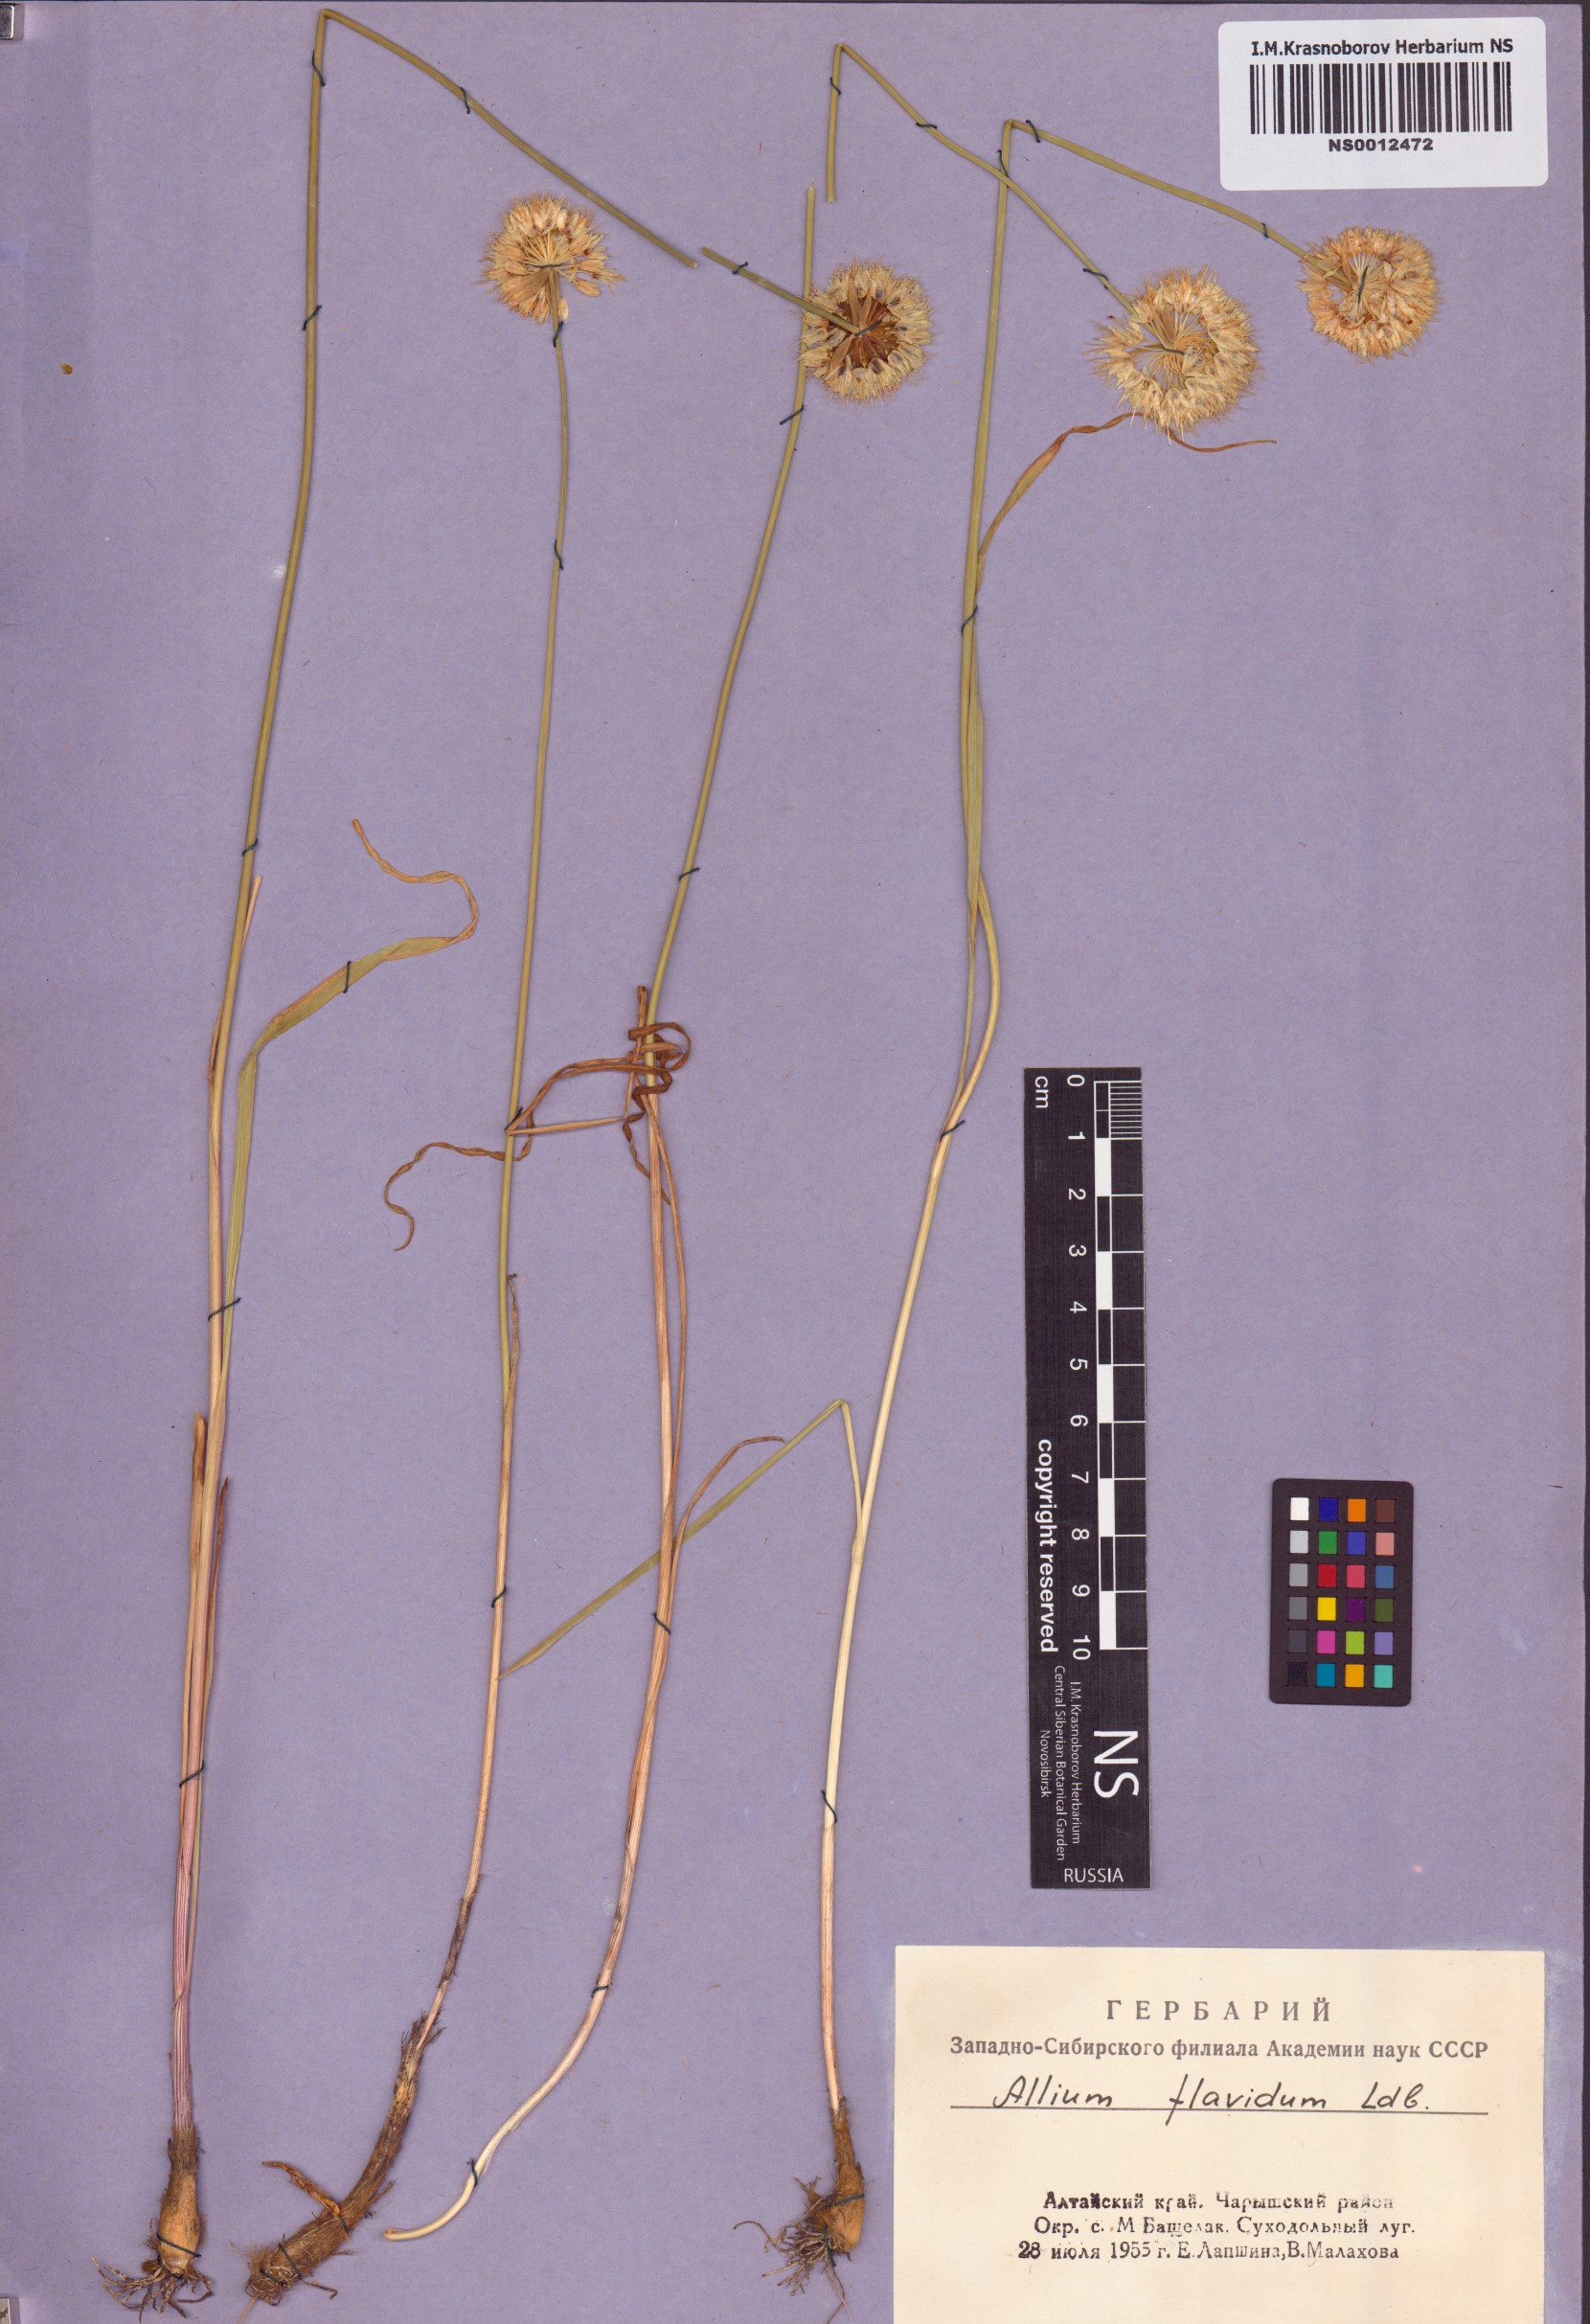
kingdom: Plantae
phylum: Tracheophyta
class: Liliopsida
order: Asparagales
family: Amaryllidaceae
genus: Allium
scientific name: Allium flavidum
